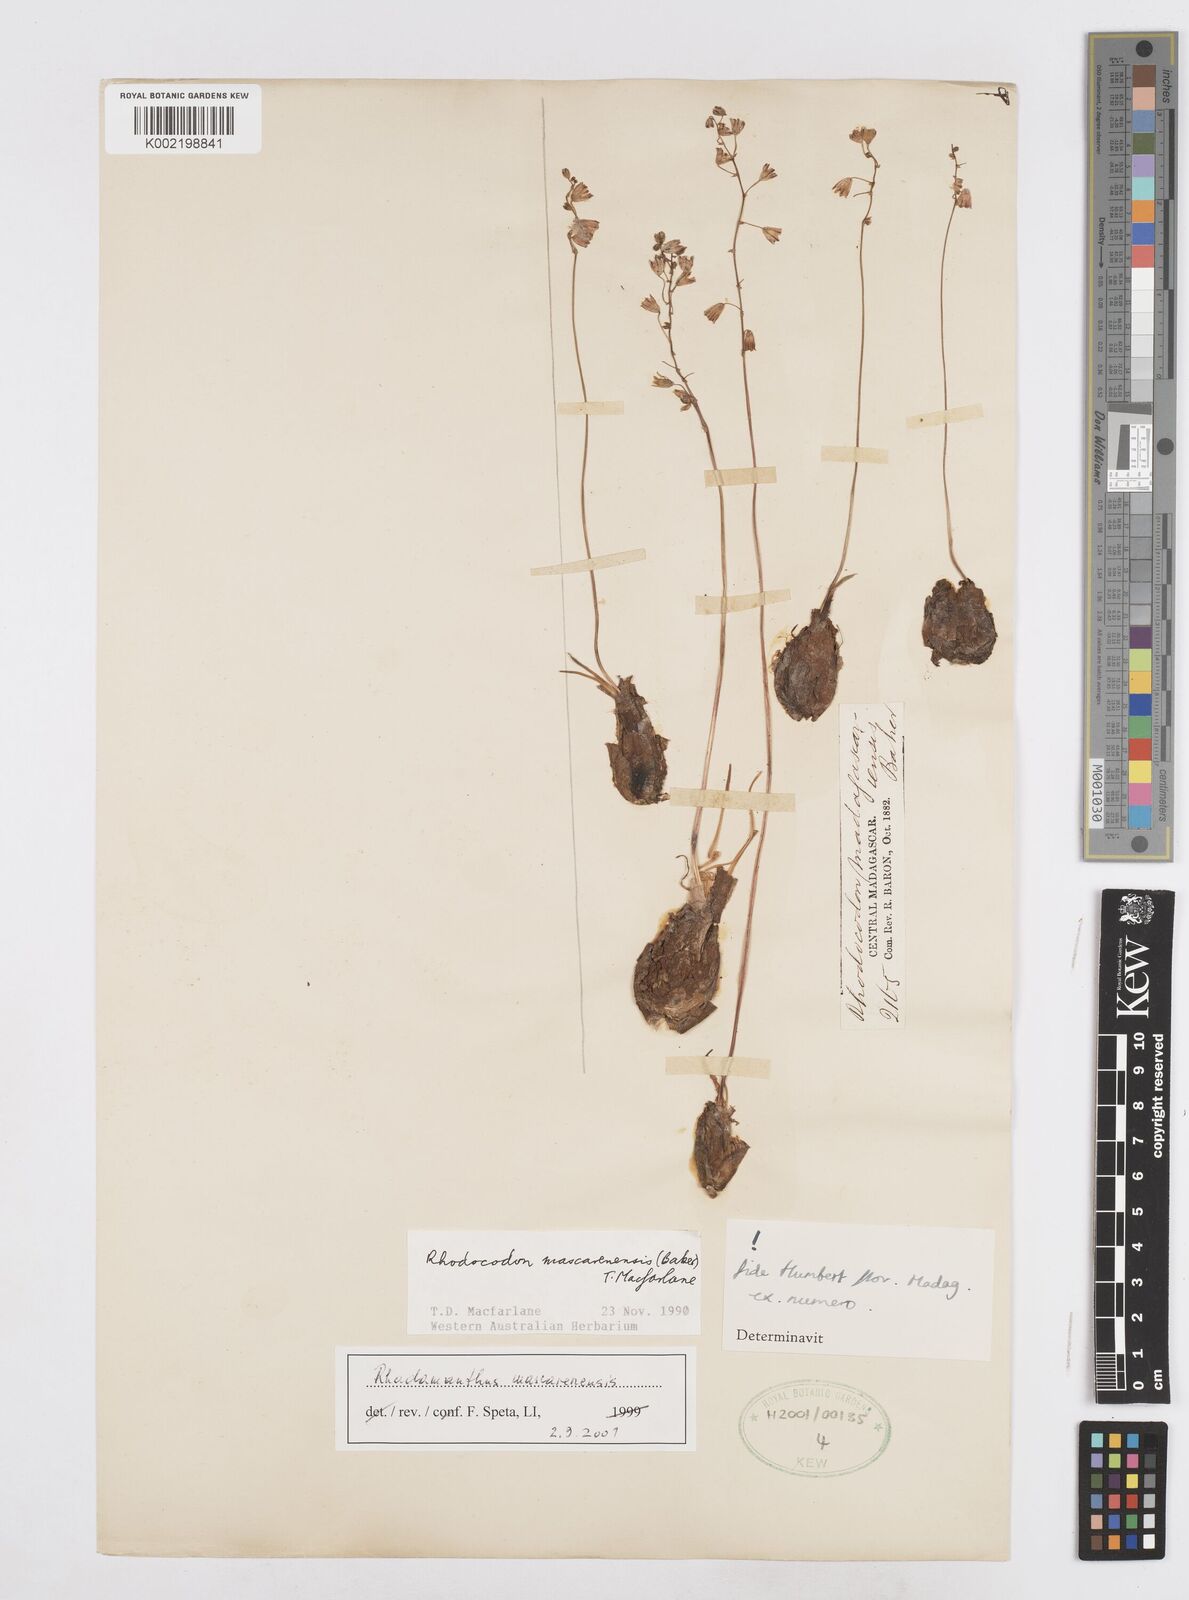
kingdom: Plantae
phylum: Tracheophyta
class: Liliopsida
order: Asparagales
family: Asparagaceae
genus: Drimia
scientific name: Drimia
